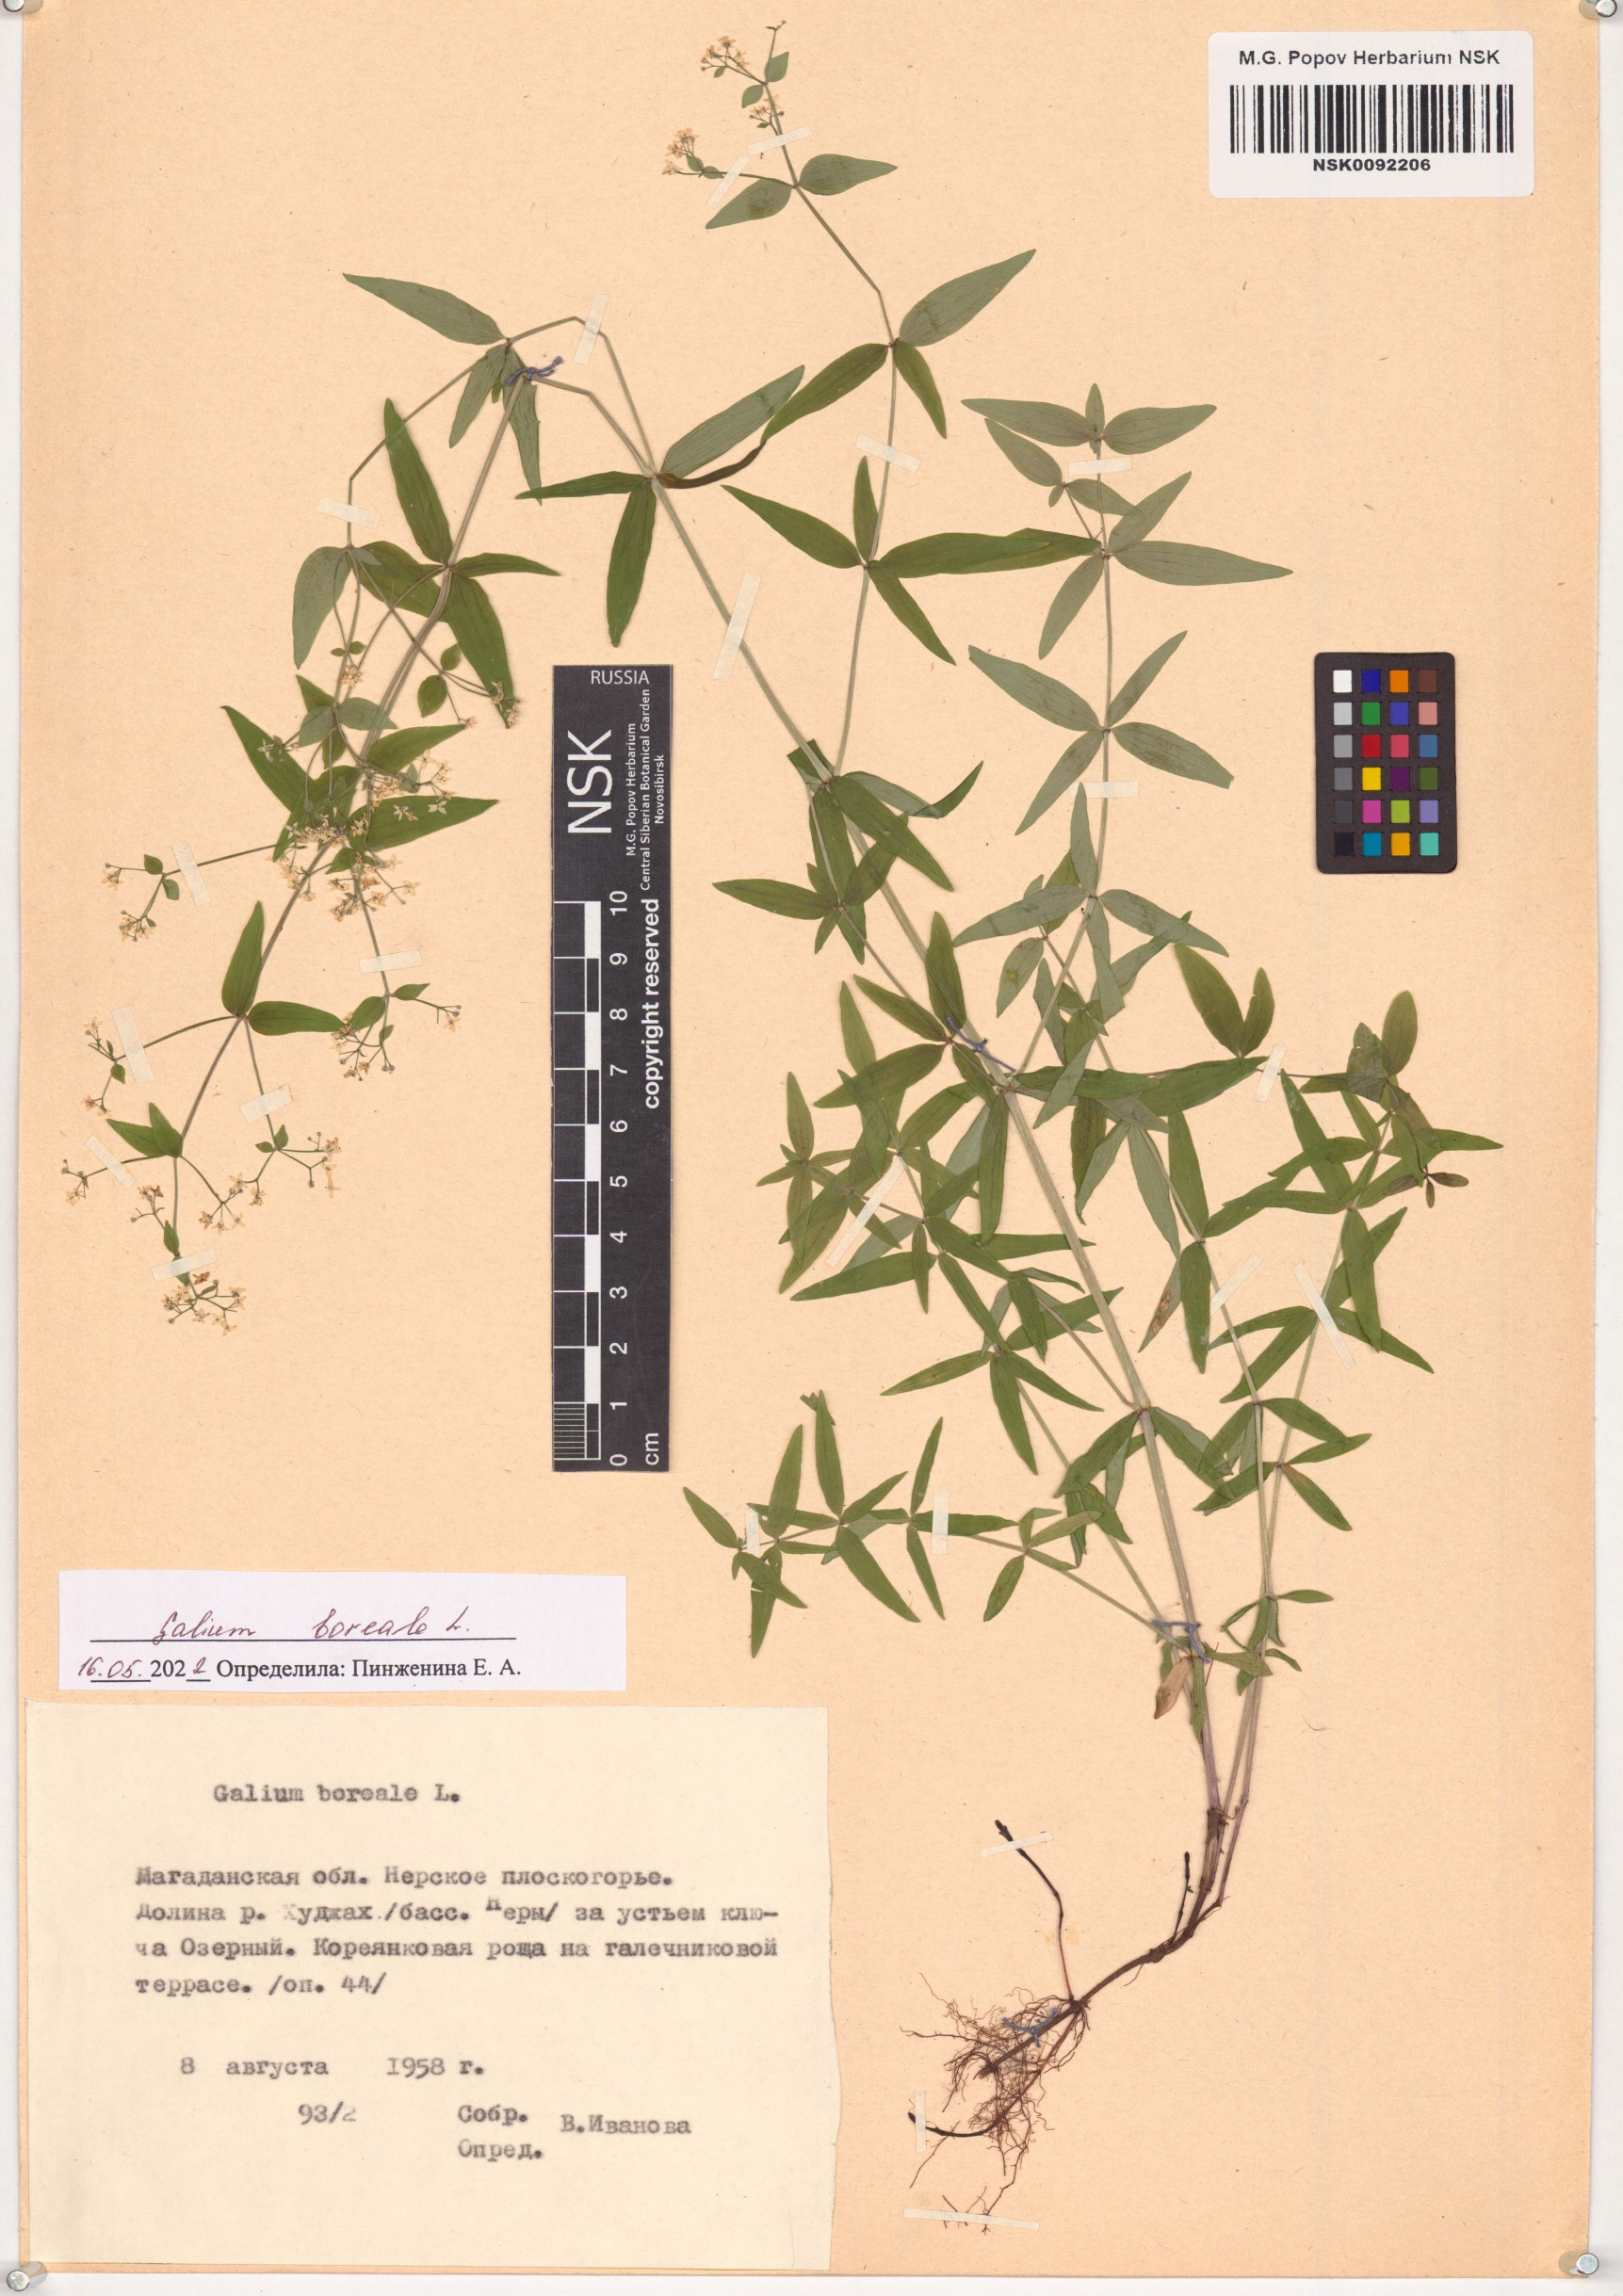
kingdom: Plantae
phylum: Tracheophyta
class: Magnoliopsida
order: Gentianales
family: Rubiaceae
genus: Galium
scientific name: Galium boreale
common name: Northern bedstraw
